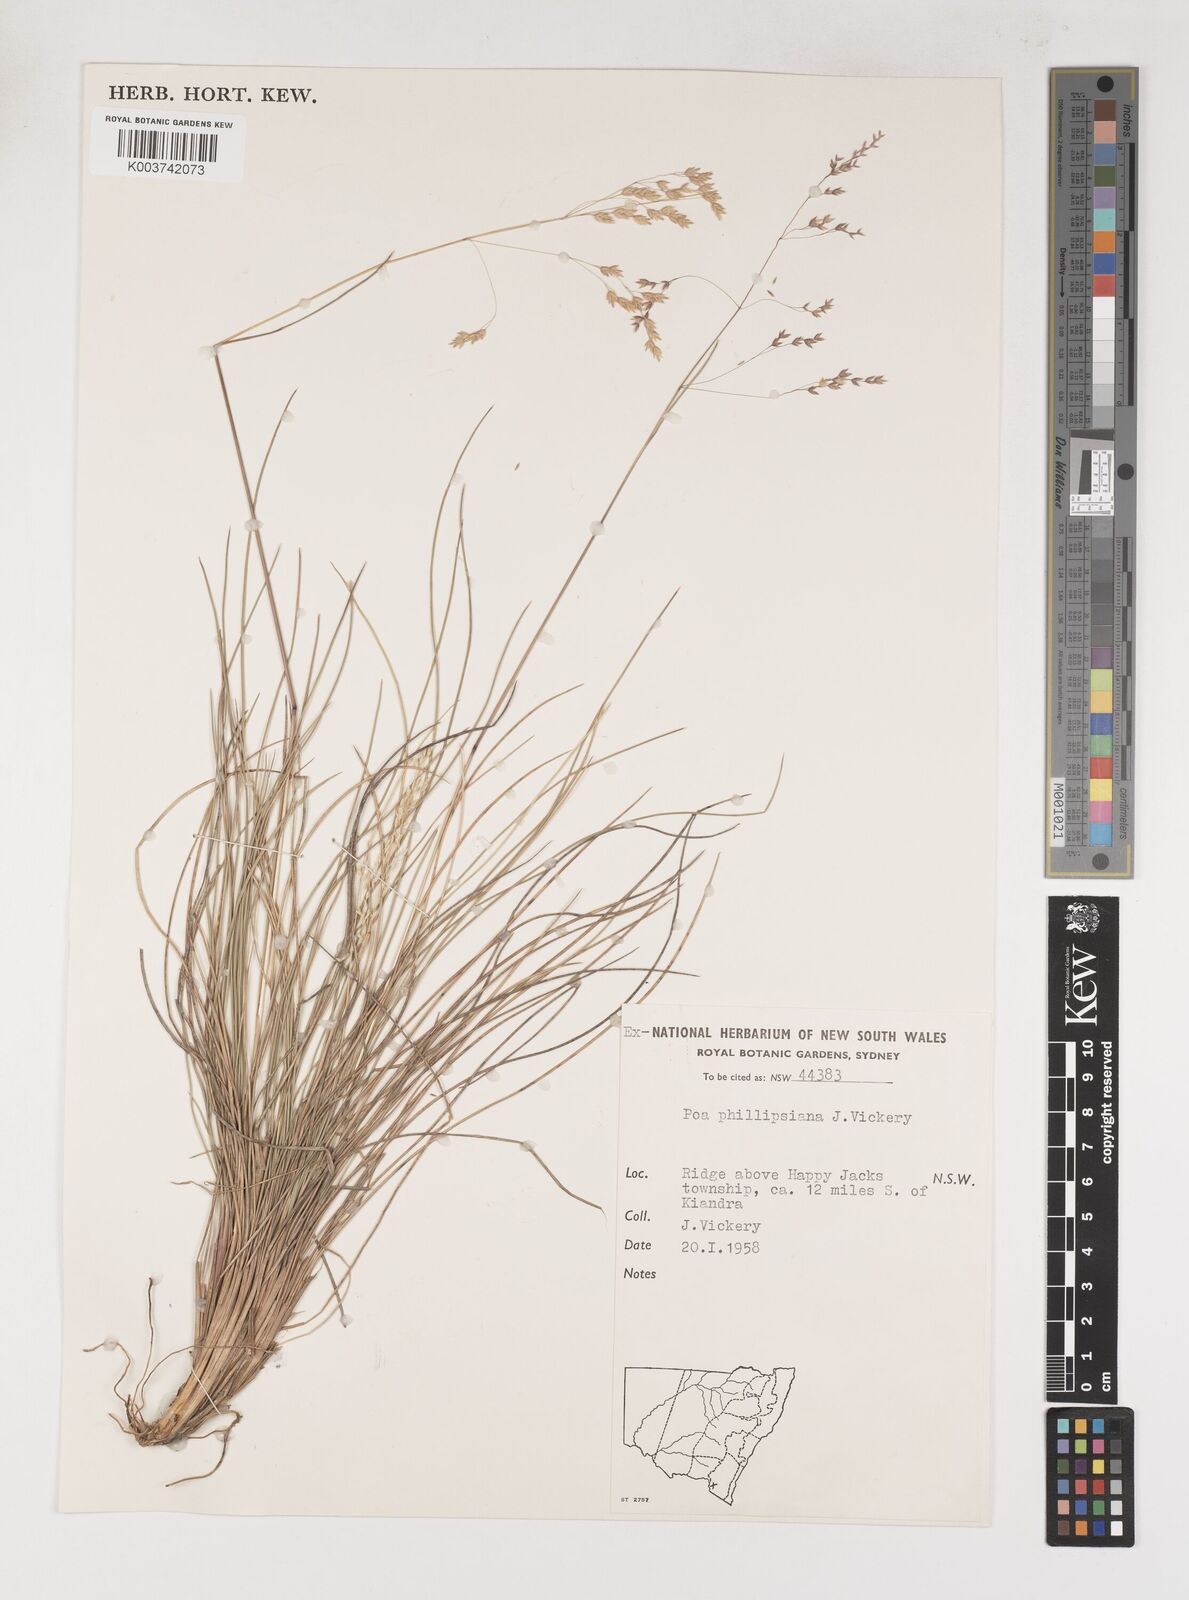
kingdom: Plantae
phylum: Tracheophyta
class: Liliopsida
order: Poales
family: Poaceae
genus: Poa
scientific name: Poa phillipsiana
